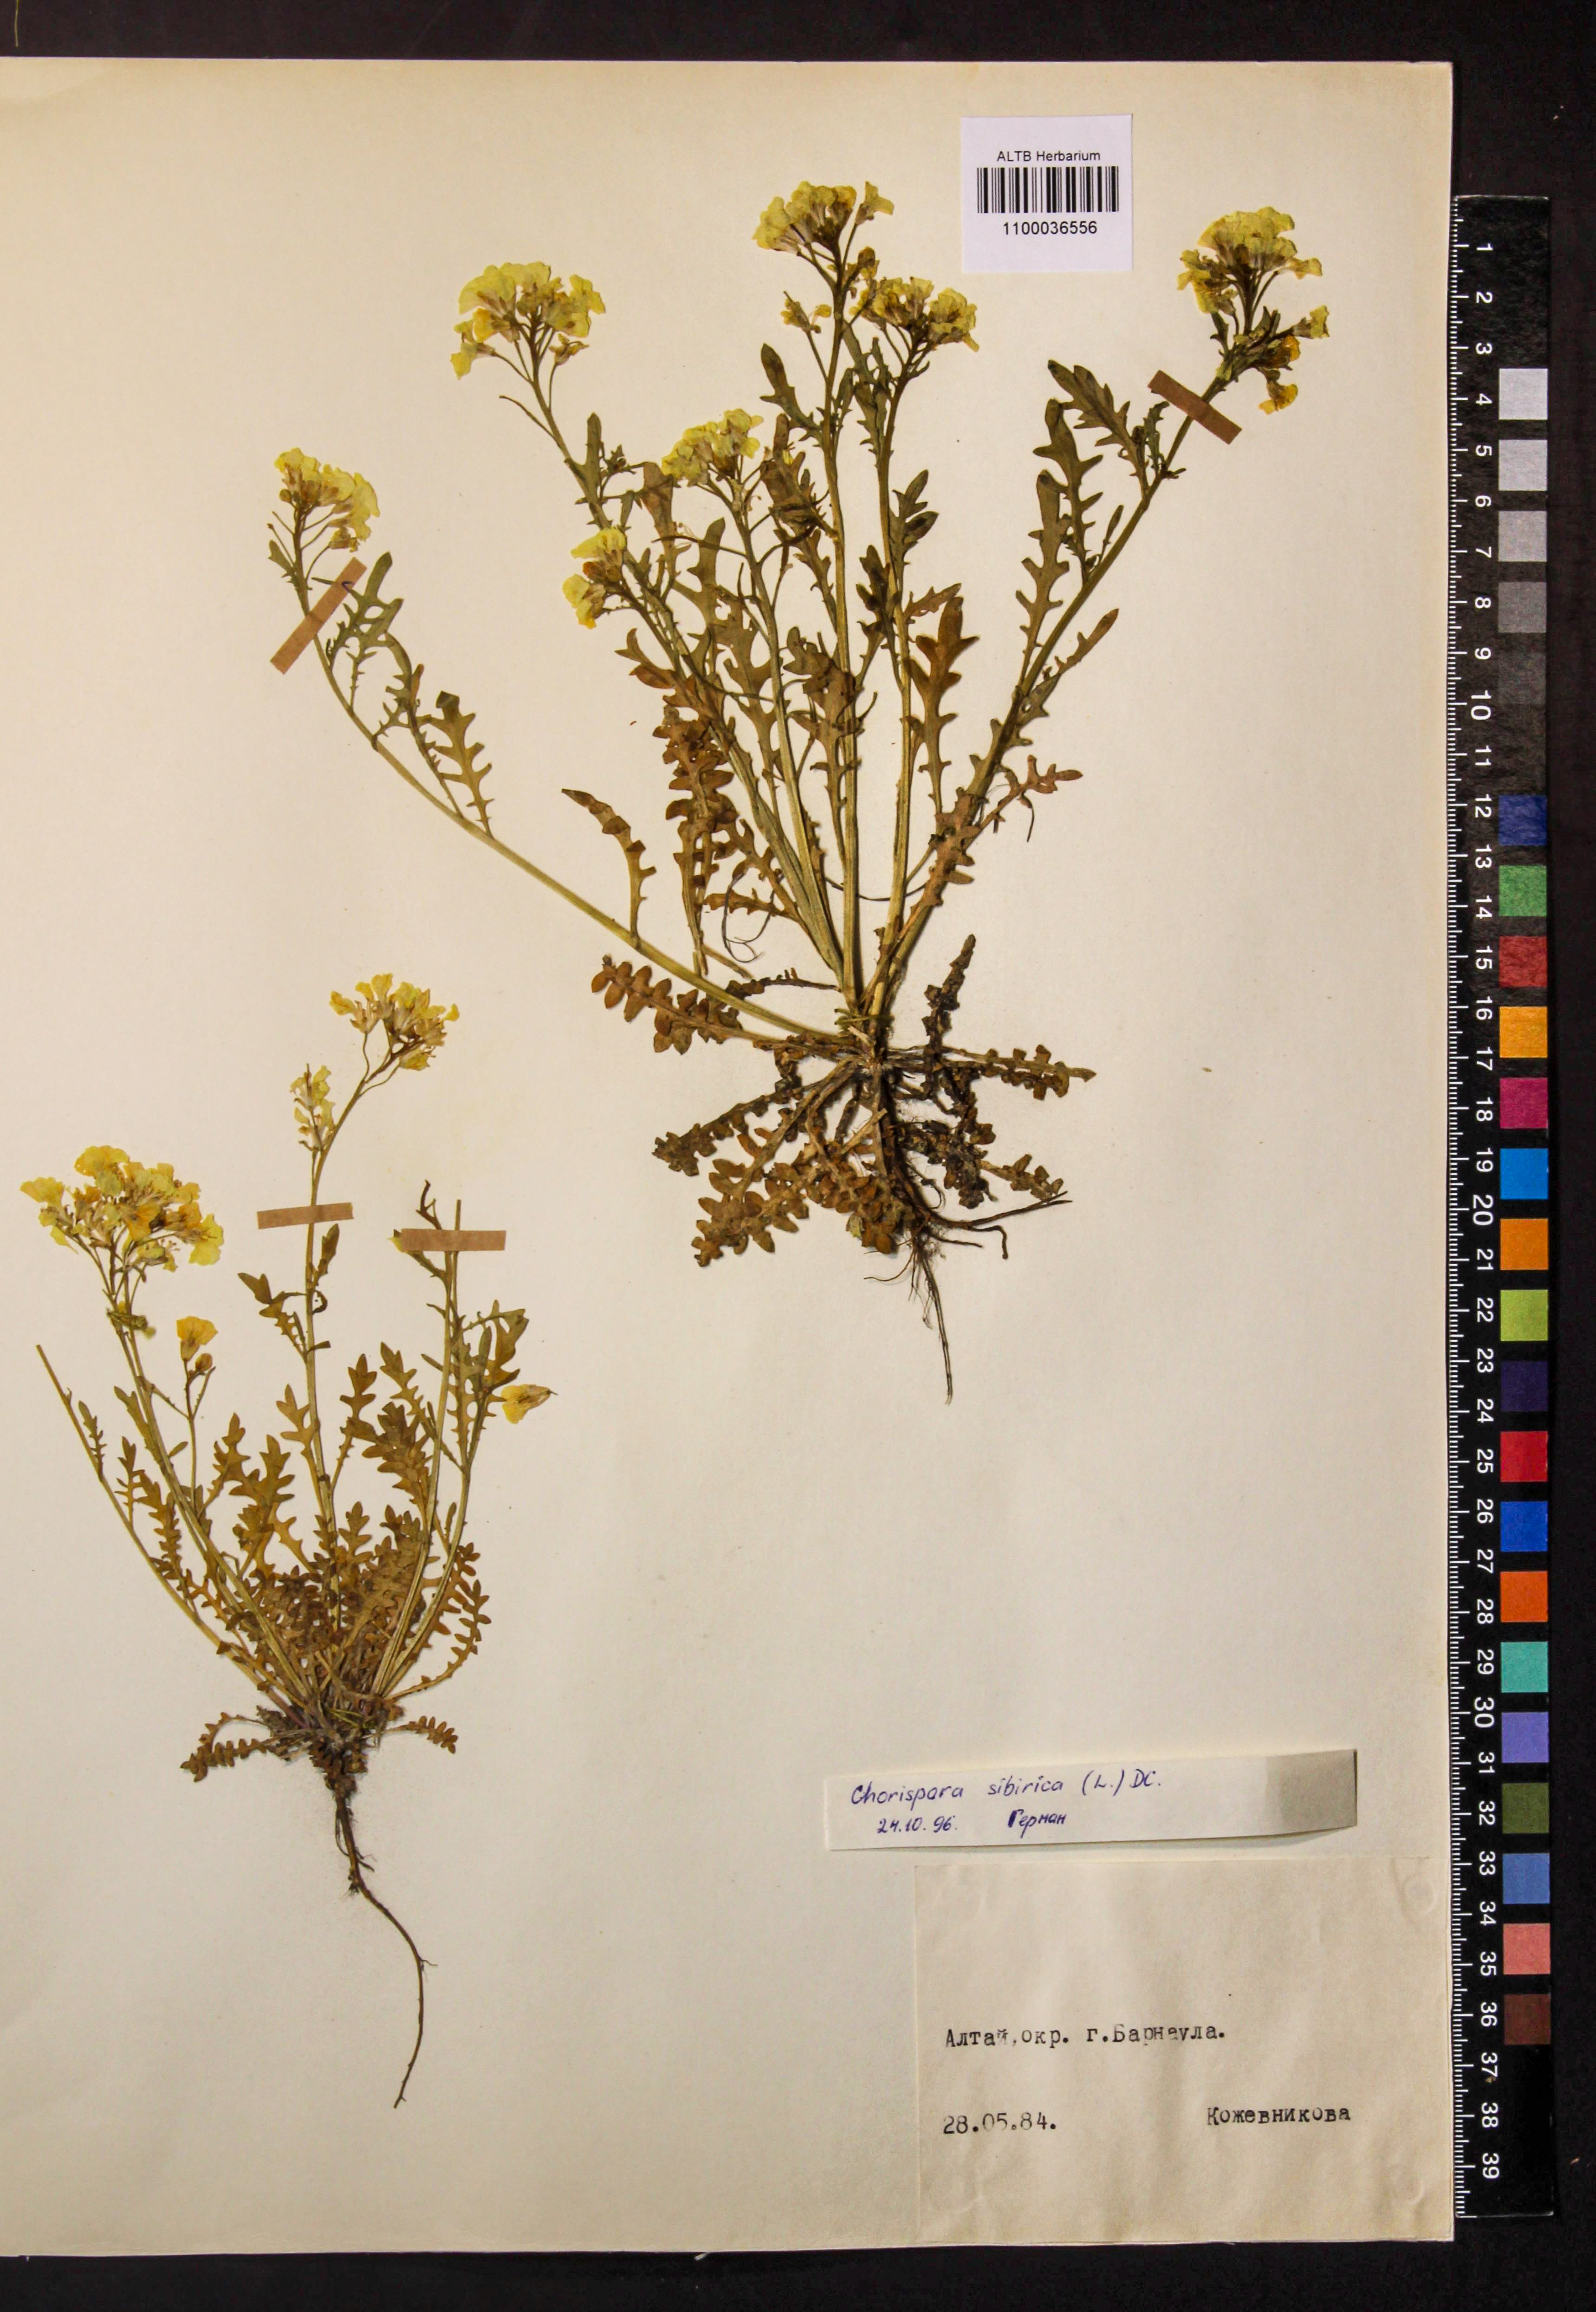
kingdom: Plantae
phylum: Tracheophyta
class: Magnoliopsida
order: Brassicales
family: Brassicaceae
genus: Chorispora
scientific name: Chorispora sibirica
